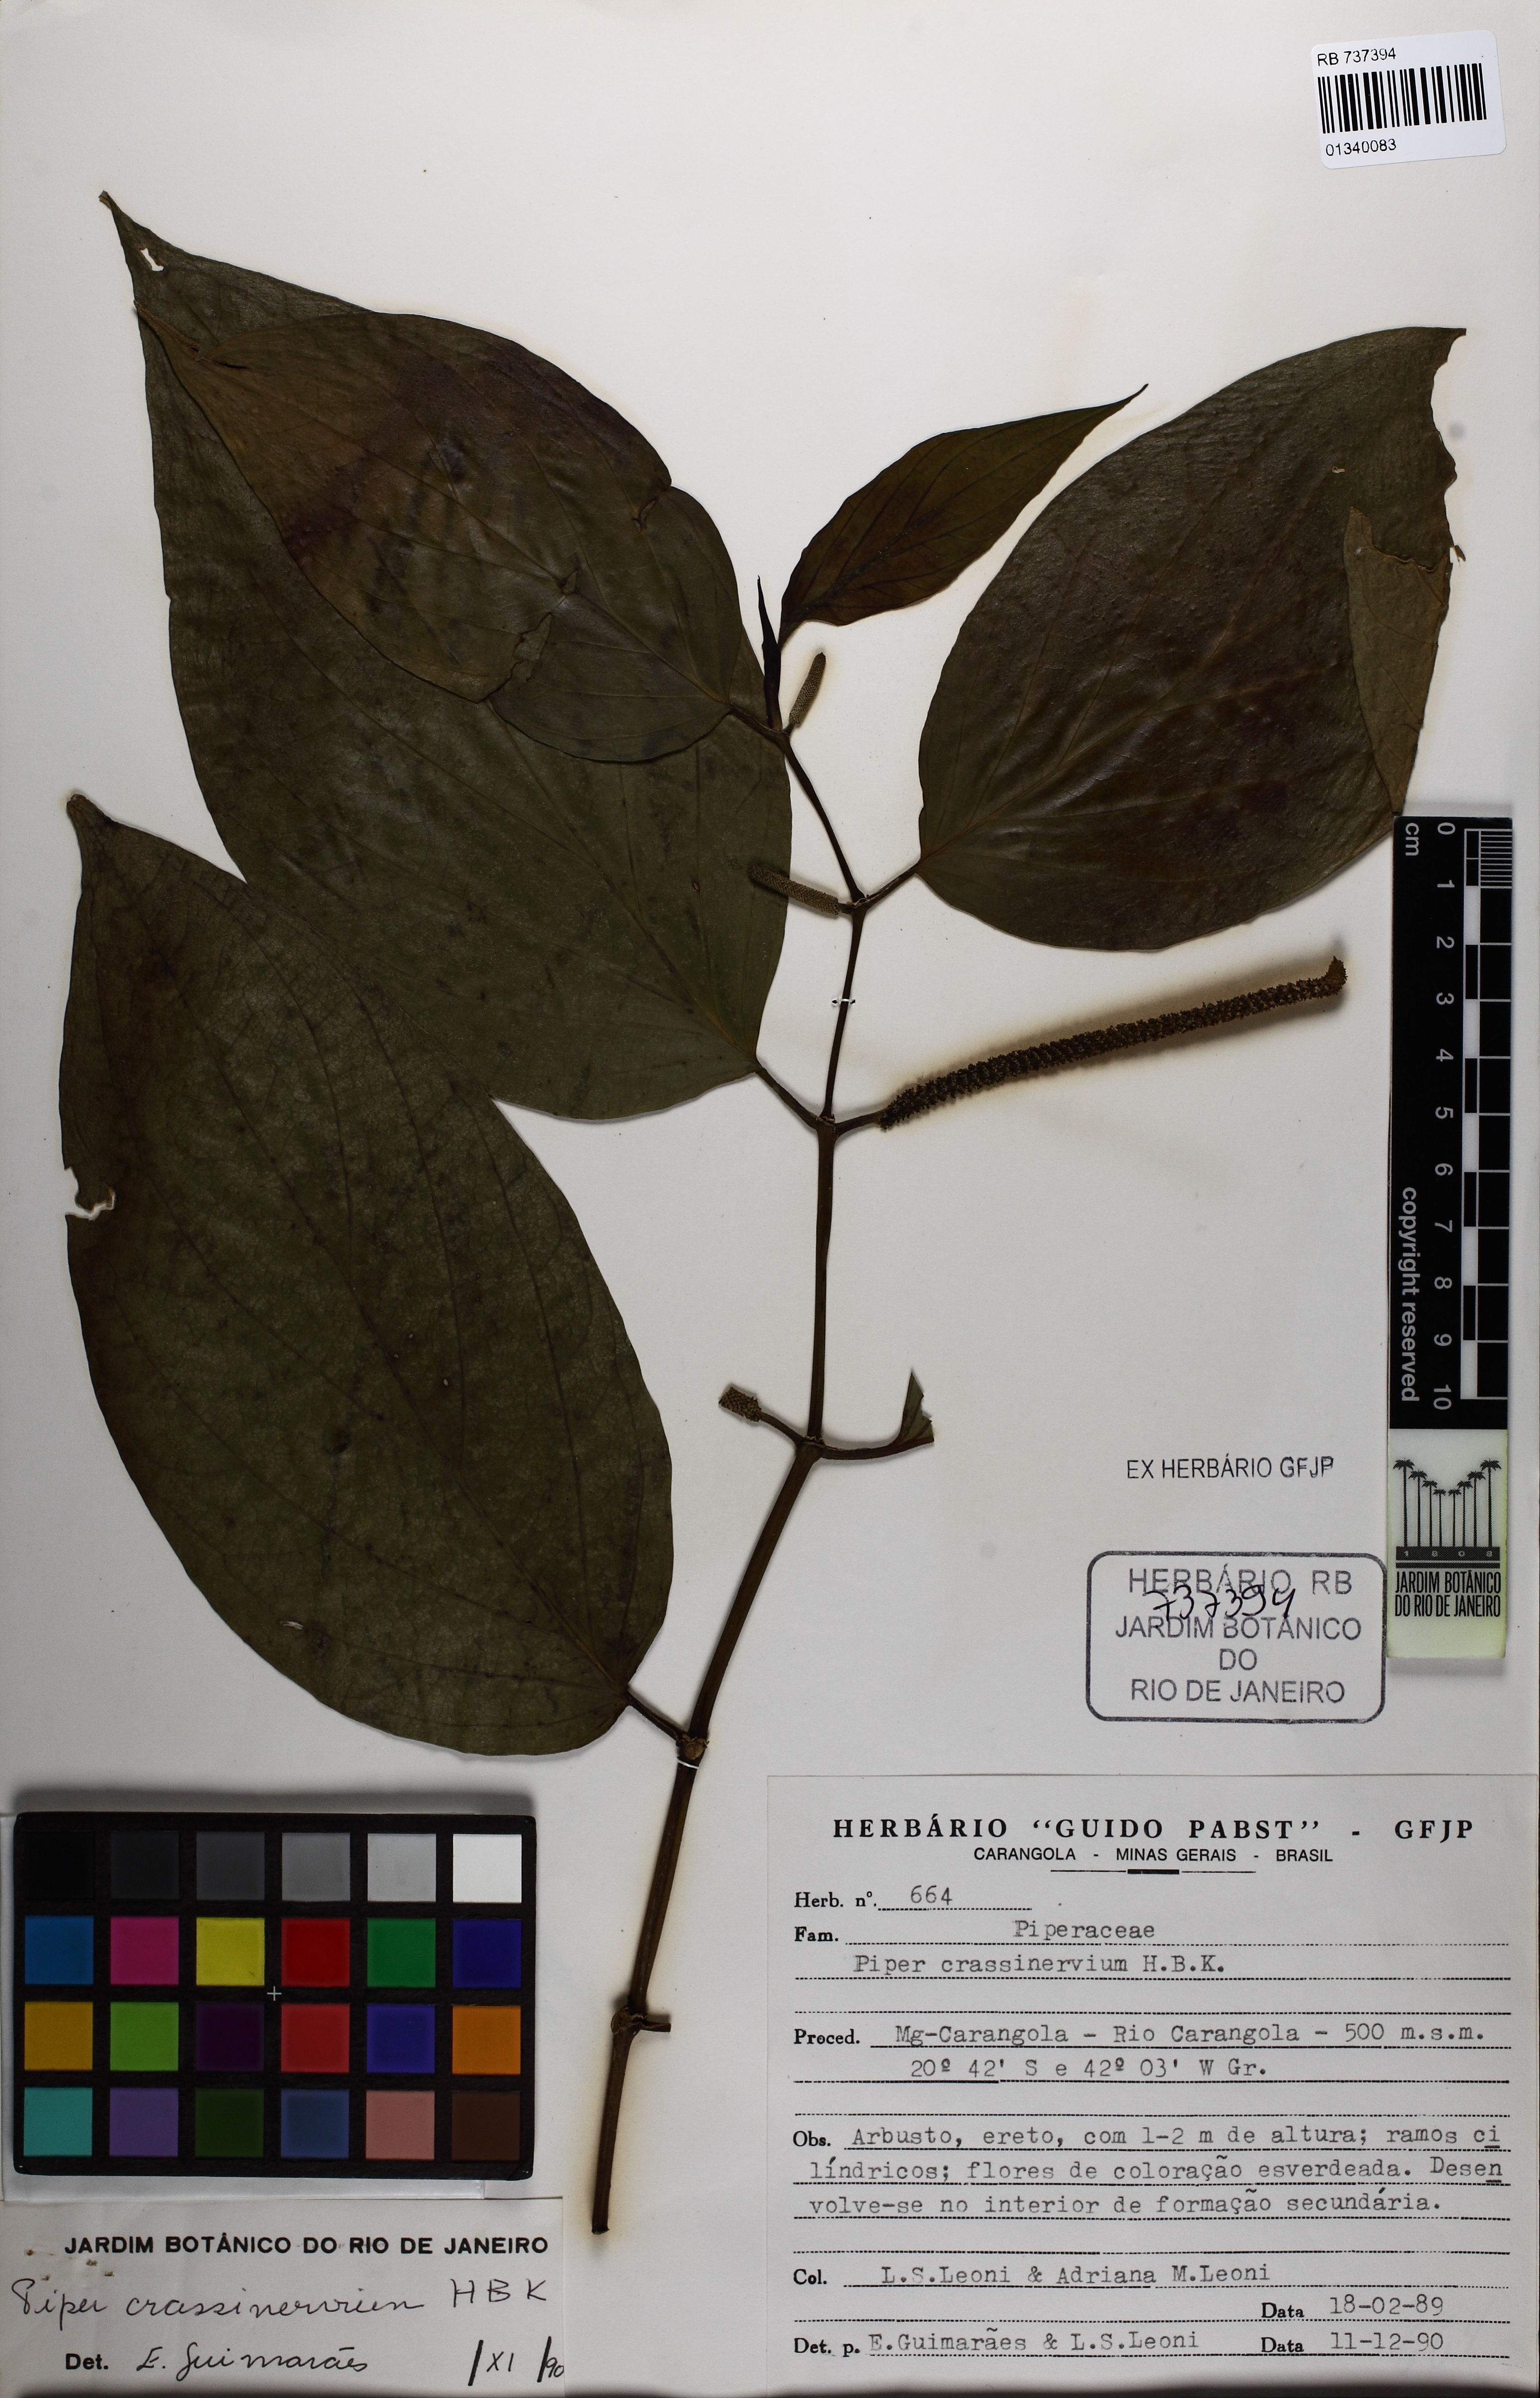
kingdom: Plantae
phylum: Tracheophyta
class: Magnoliopsida
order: Piperales
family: Piperaceae
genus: Piper
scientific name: Piper crassinervium
